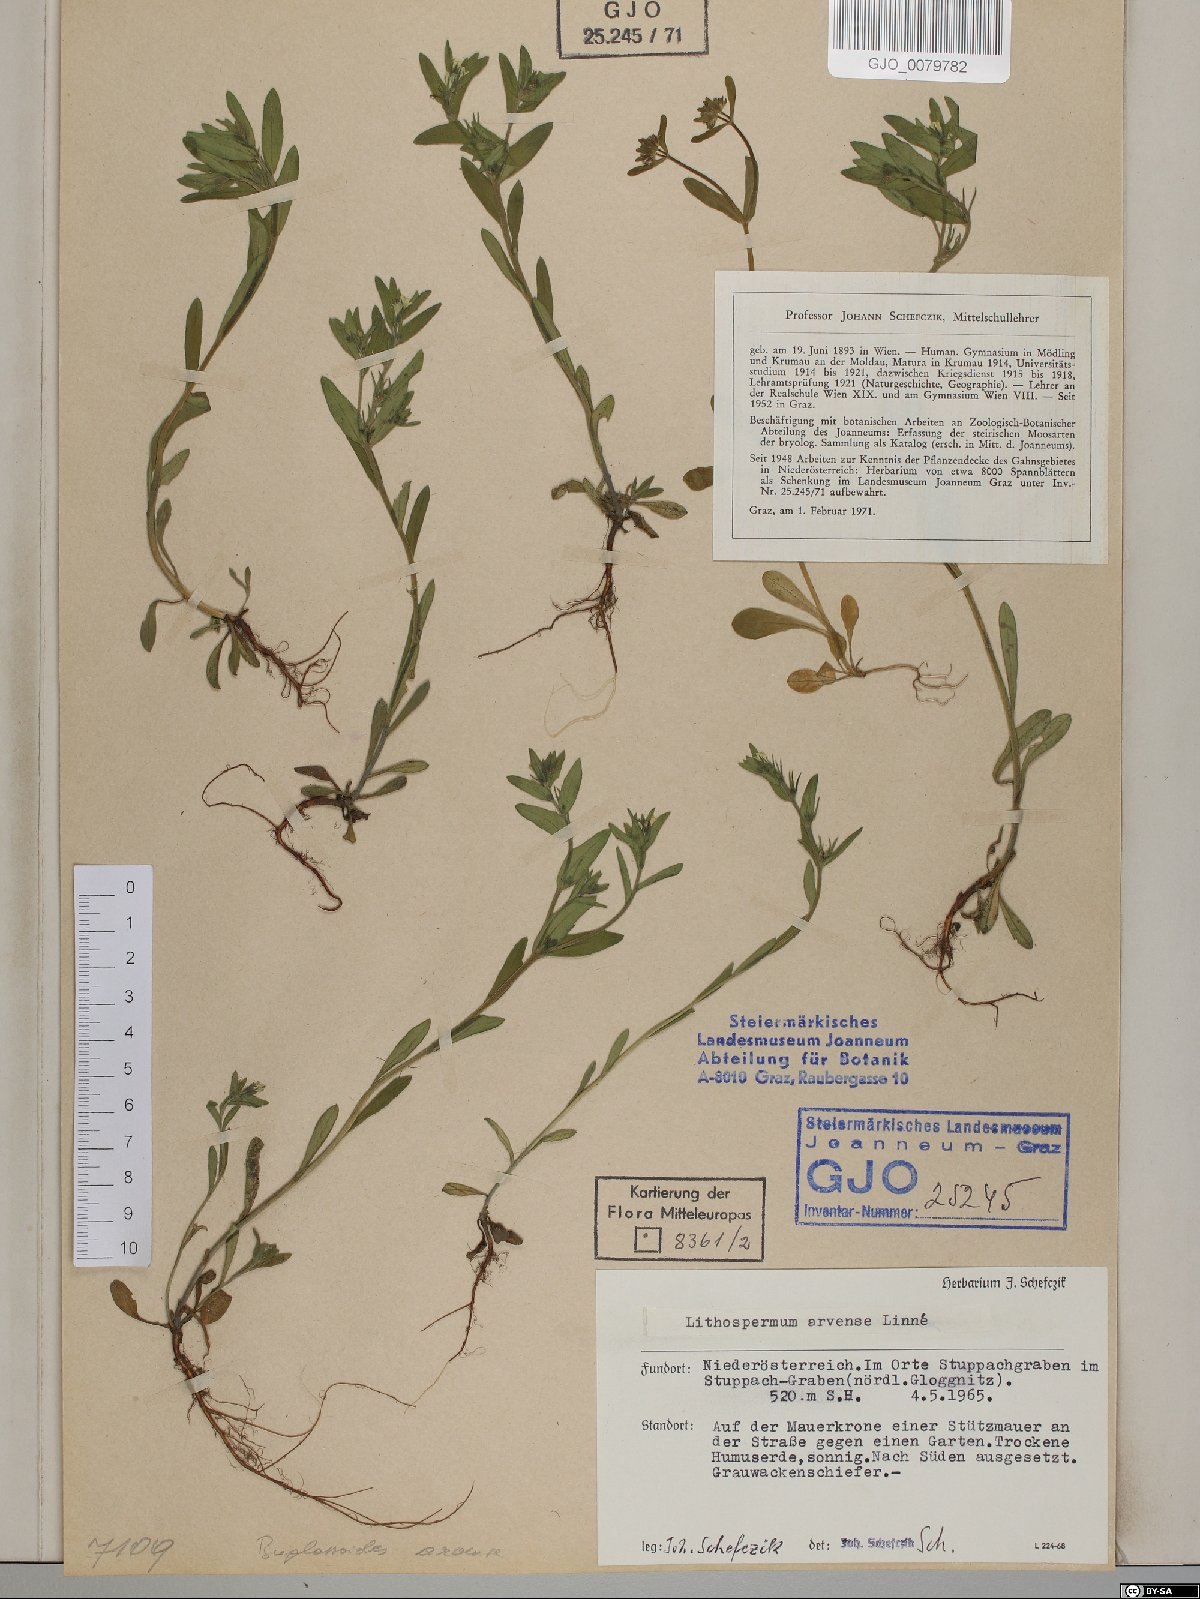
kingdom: Plantae
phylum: Tracheophyta
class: Magnoliopsida
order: Boraginales
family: Boraginaceae
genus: Buglossoides
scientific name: Buglossoides arvensis
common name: Corn gromwell
